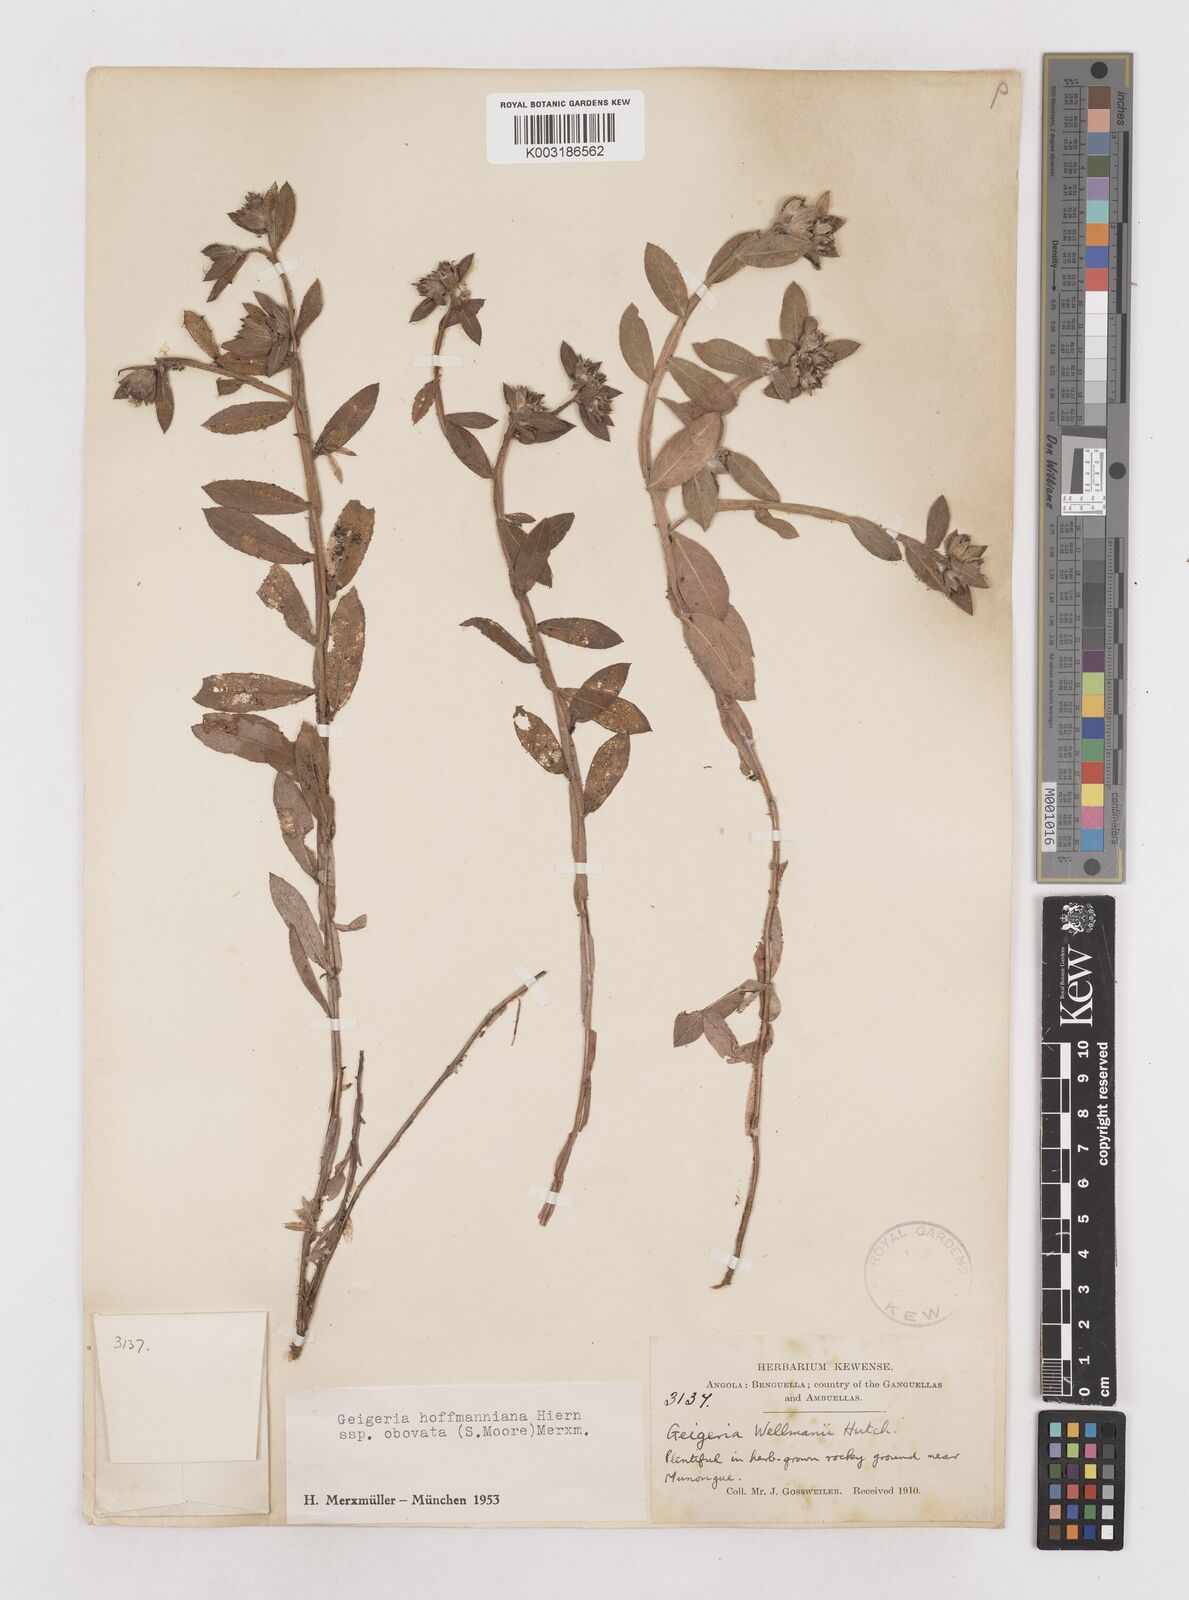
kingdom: Plantae
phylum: Tracheophyta
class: Magnoliopsida
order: Asterales
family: Asteraceae
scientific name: Asteraceae
